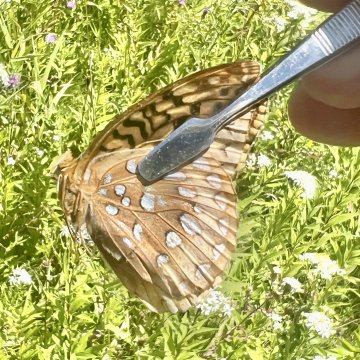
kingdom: Animalia
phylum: Arthropoda
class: Insecta
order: Lepidoptera
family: Nymphalidae
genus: Speyeria
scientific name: Speyeria cybele
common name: Great Spangled Fritillary
